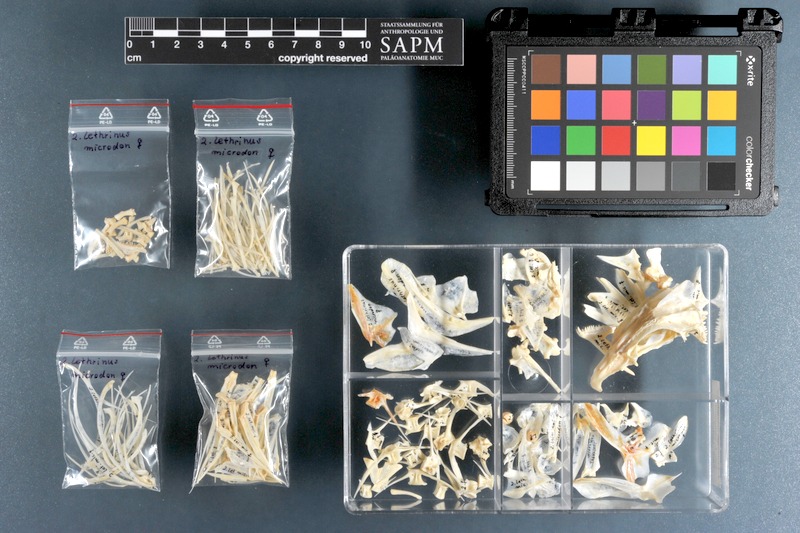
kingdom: Animalia
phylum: Chordata
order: Perciformes
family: Lethrinidae
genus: Lethrinus
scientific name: Lethrinus microdon
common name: Smalltooth emperor
